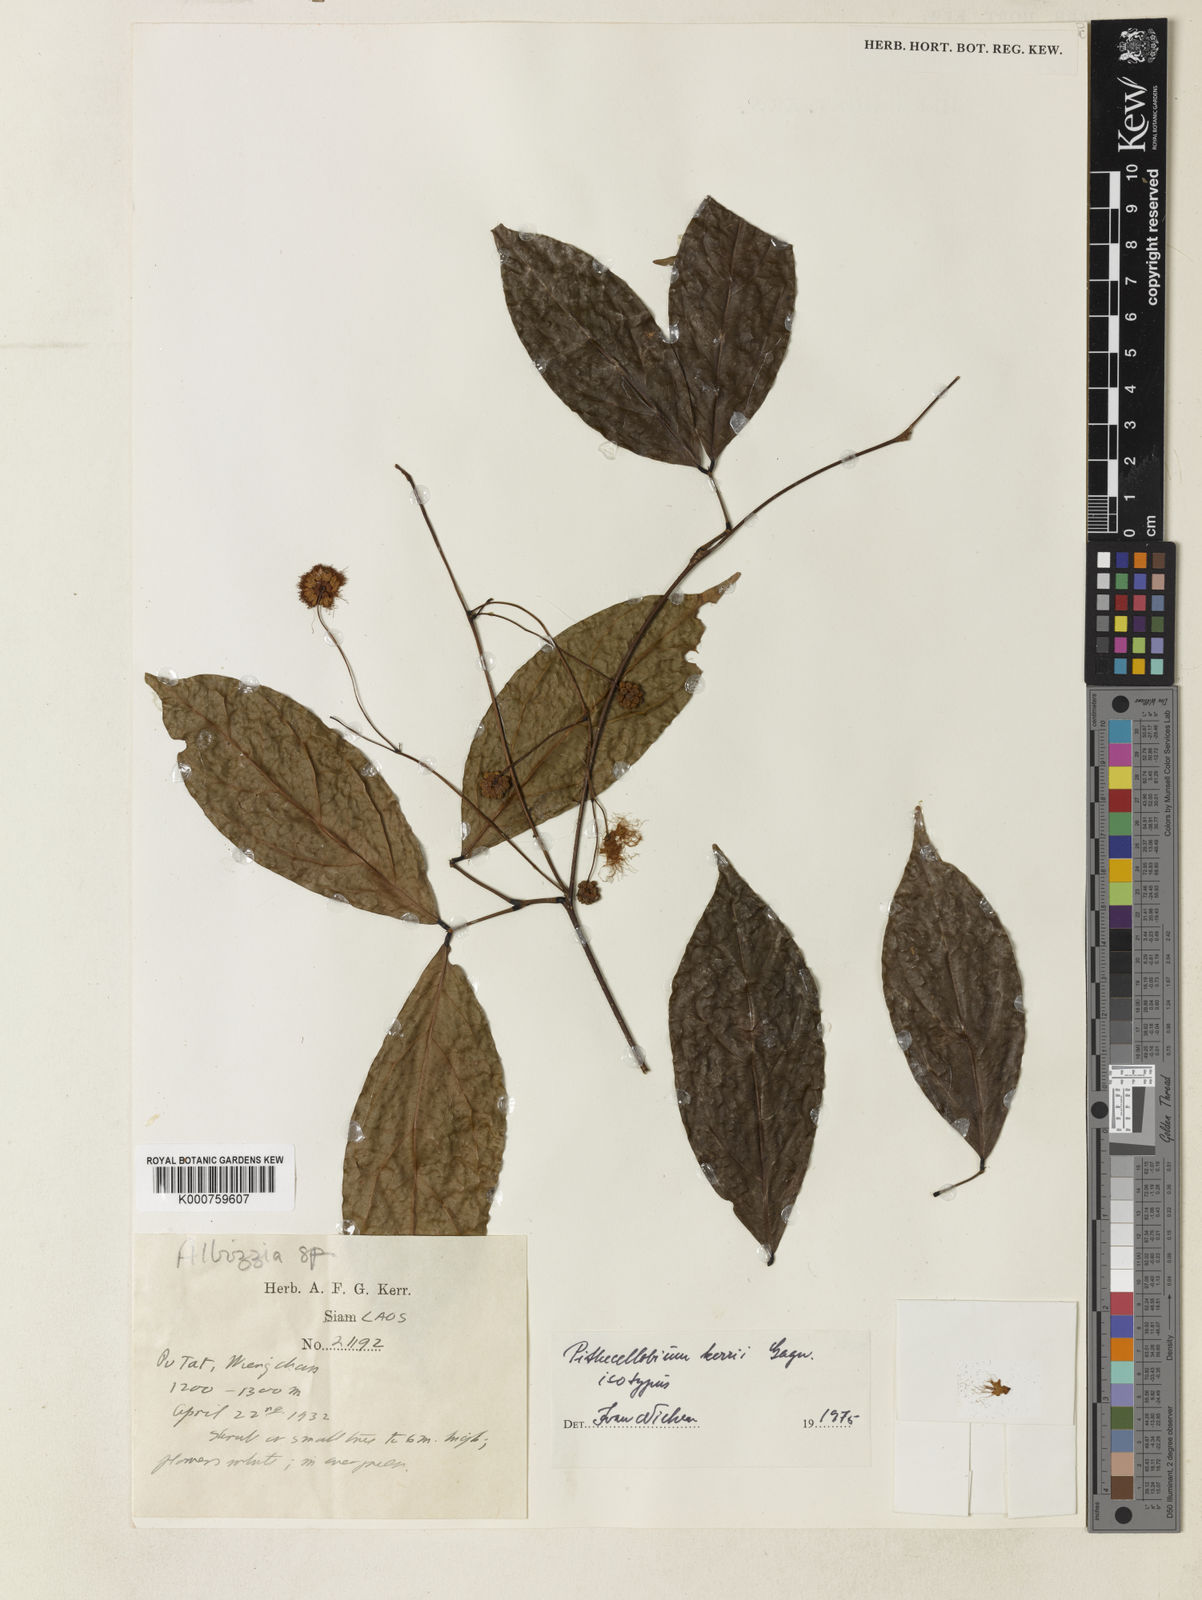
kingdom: Plantae
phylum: Tracheophyta
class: Magnoliopsida
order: Fabales
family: Fabaceae
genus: Archidendron
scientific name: Archidendron kerrii
